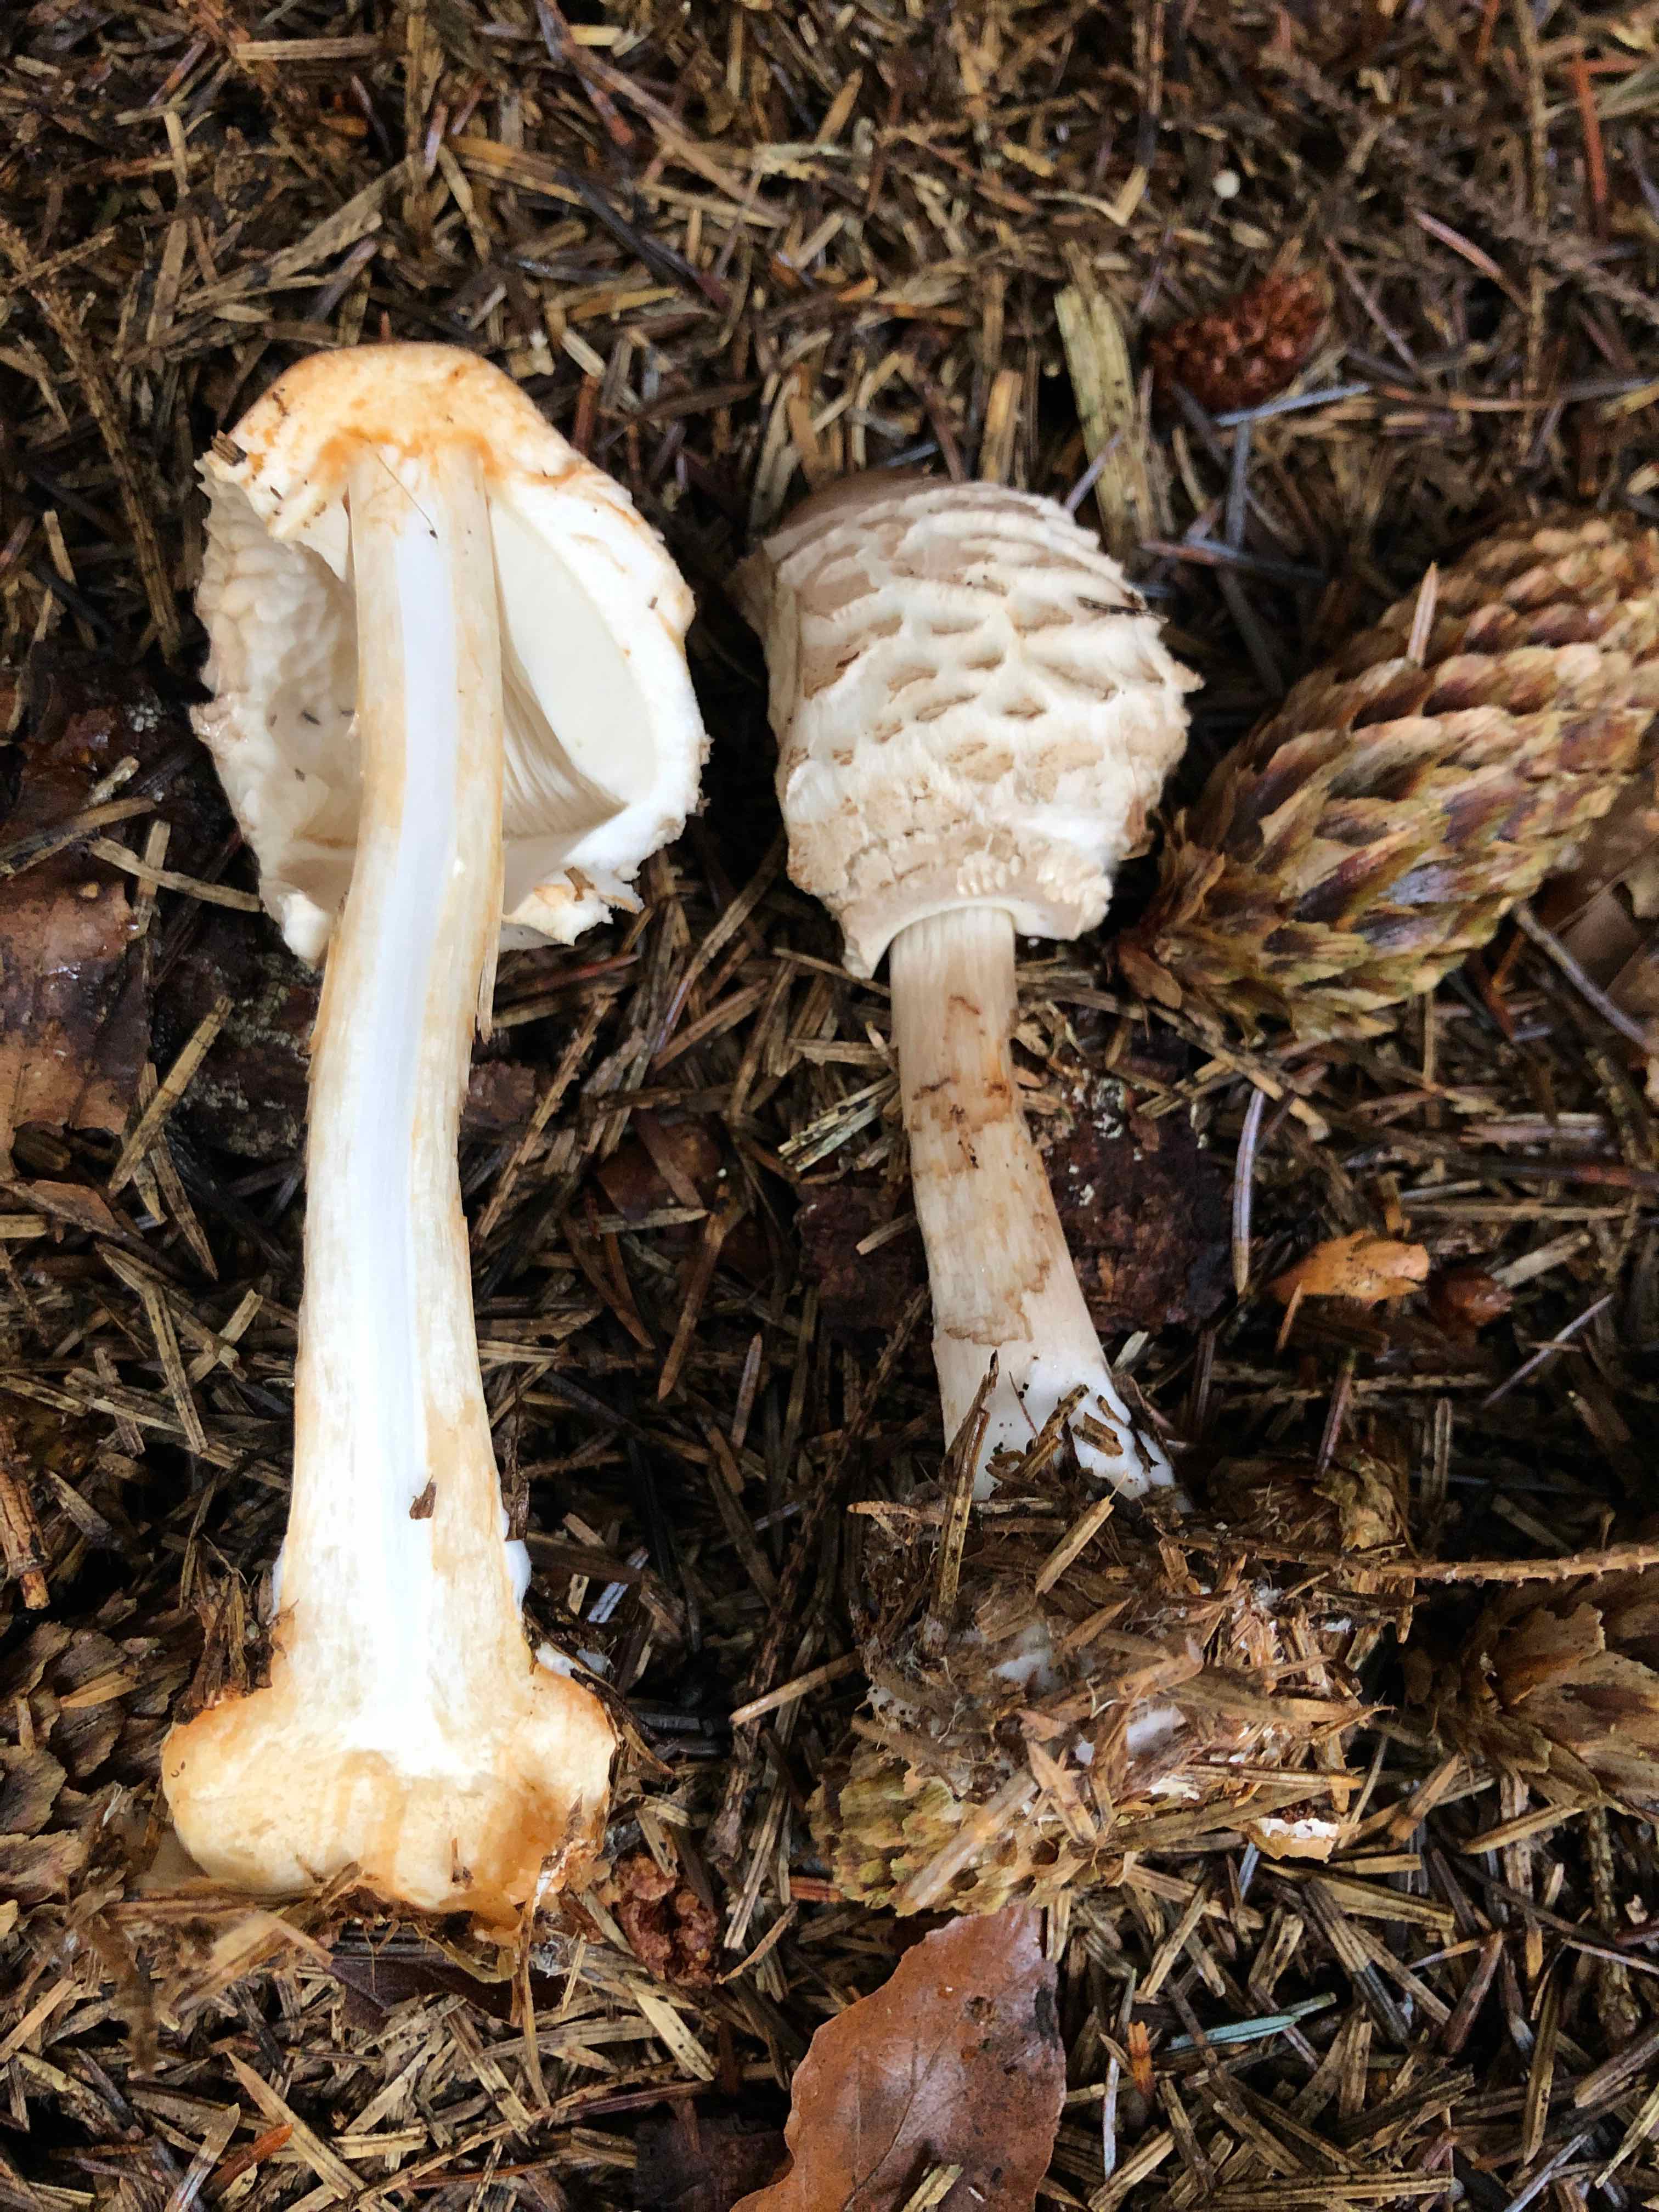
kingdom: Fungi
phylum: Basidiomycota
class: Agaricomycetes
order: Agaricales
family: Agaricaceae
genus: Chlorophyllum
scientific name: Chlorophyllum olivieri
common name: almindelig rabarberhat
